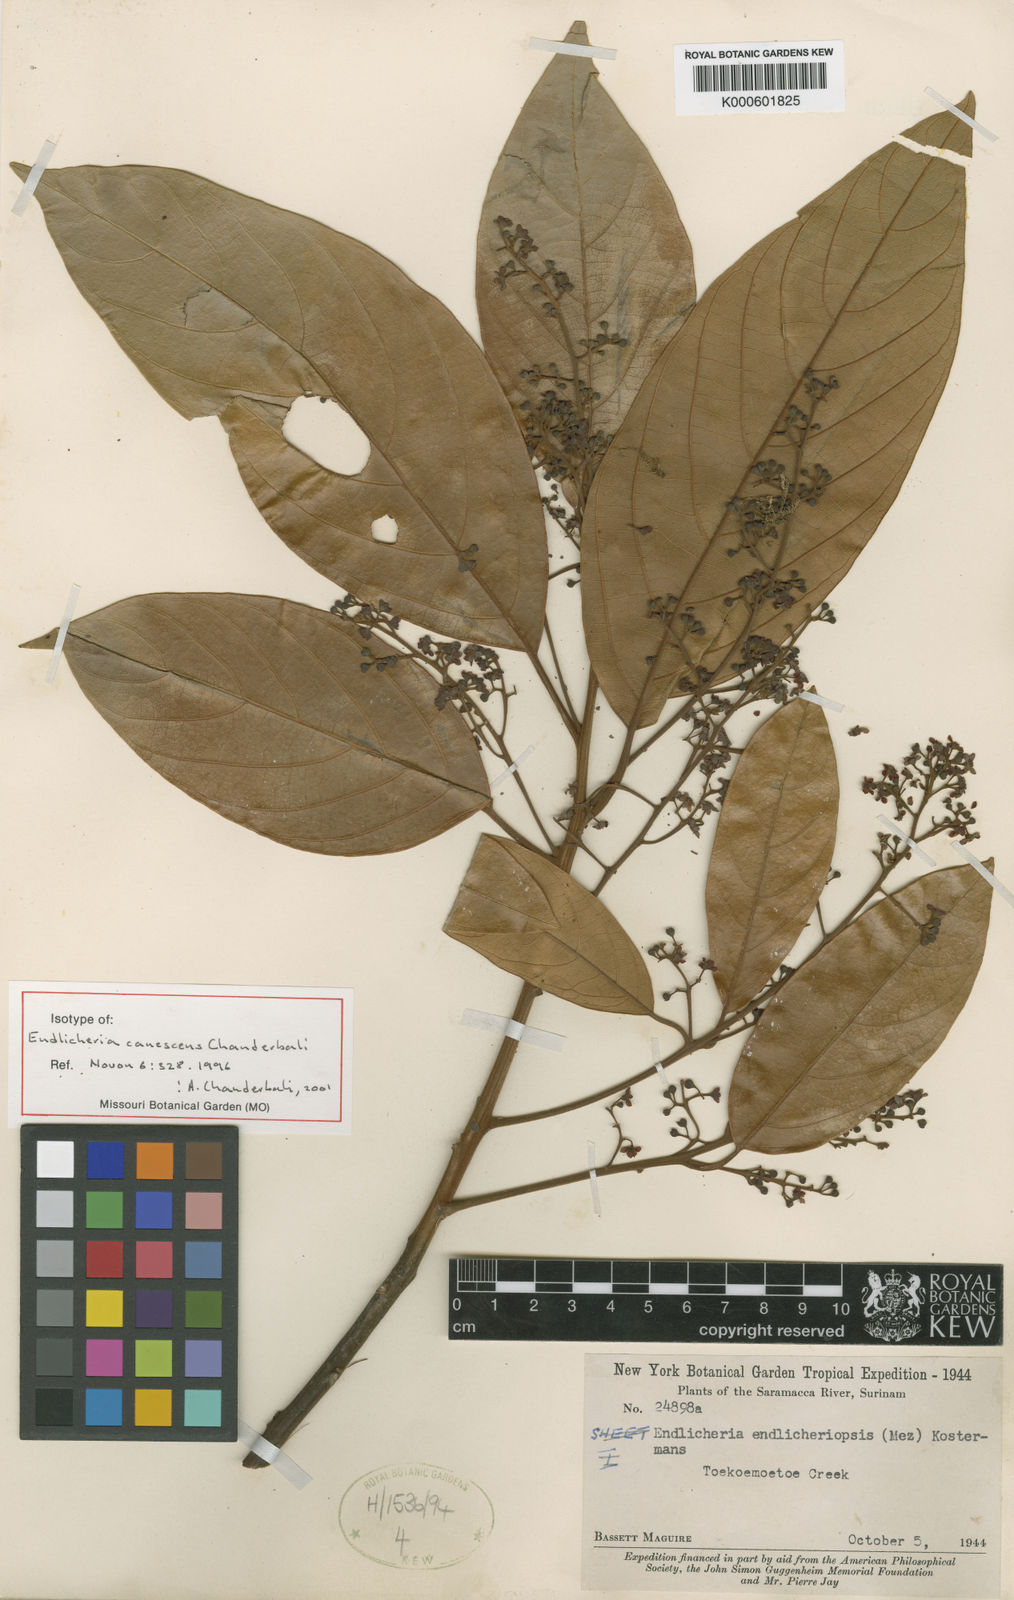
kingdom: Plantae
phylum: Tracheophyta
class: Magnoliopsida
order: Laurales
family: Lauraceae
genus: Endlicheria
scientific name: Endlicheria canescens
